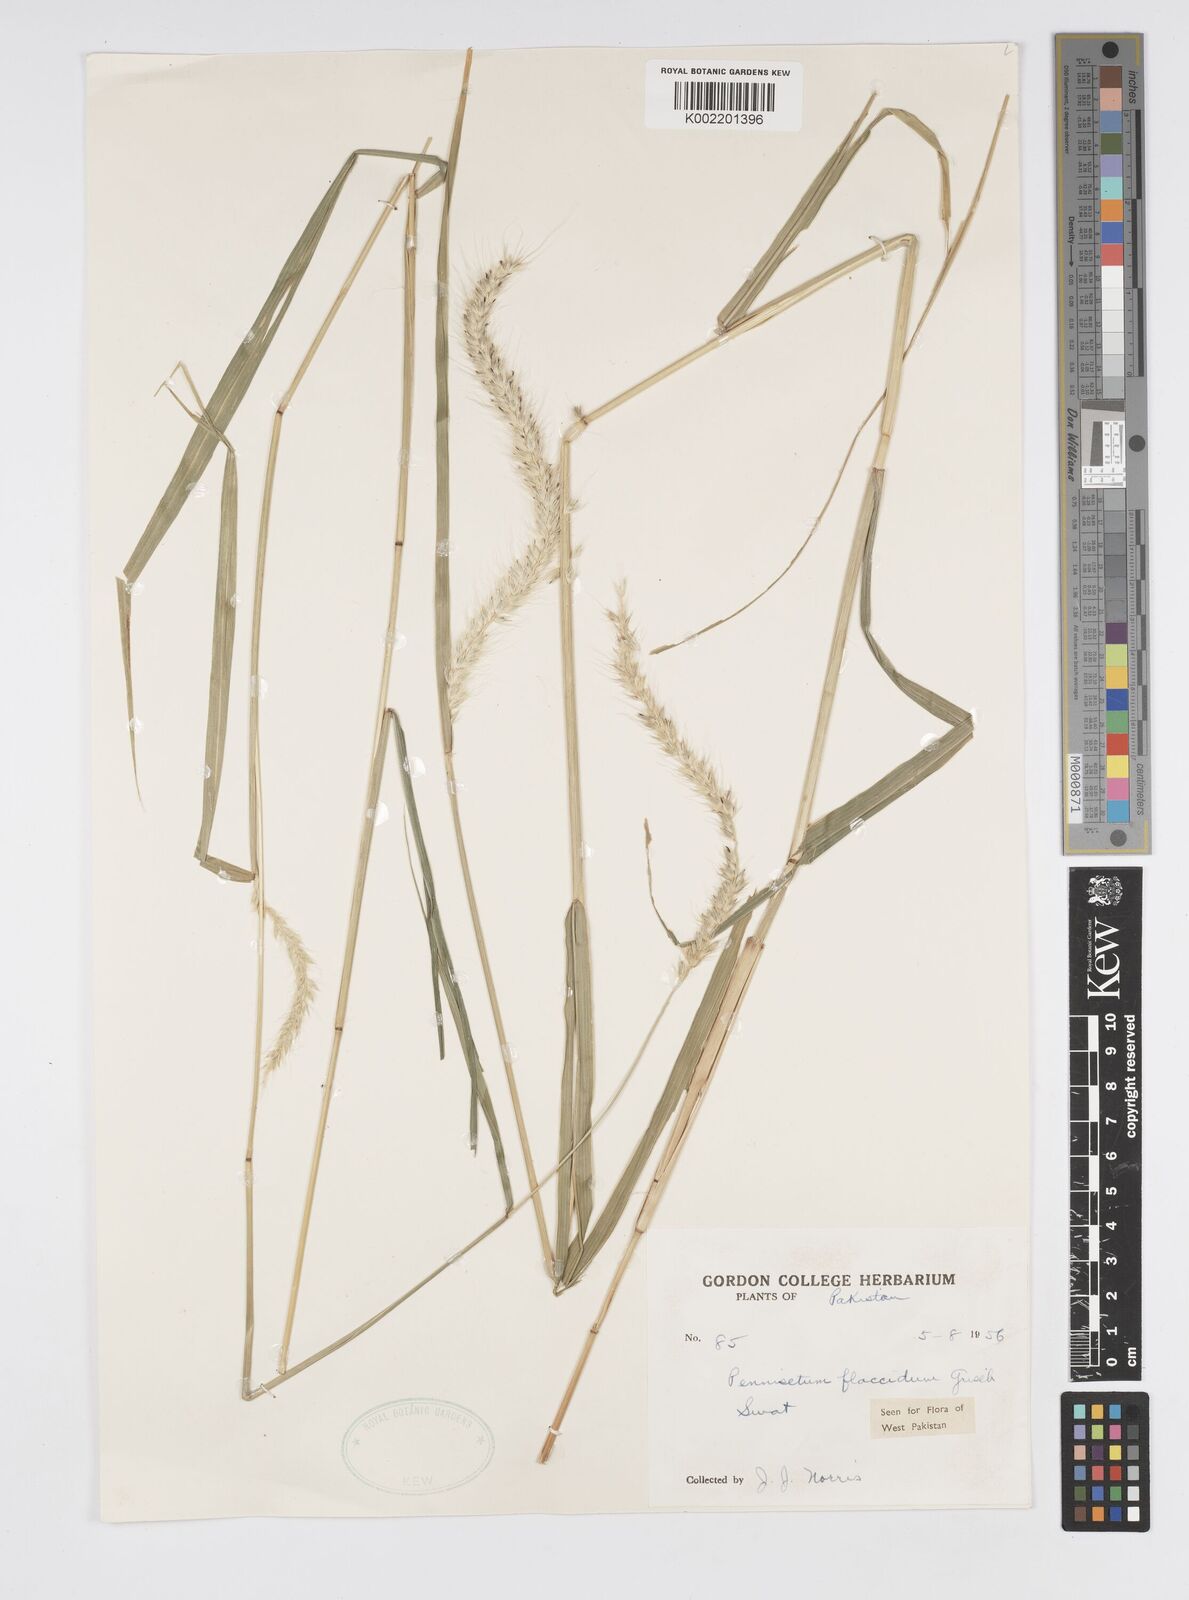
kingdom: Plantae
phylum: Tracheophyta
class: Liliopsida
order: Poales
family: Poaceae
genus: Cenchrus
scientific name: Cenchrus flaccidus
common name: Flaccid grass
